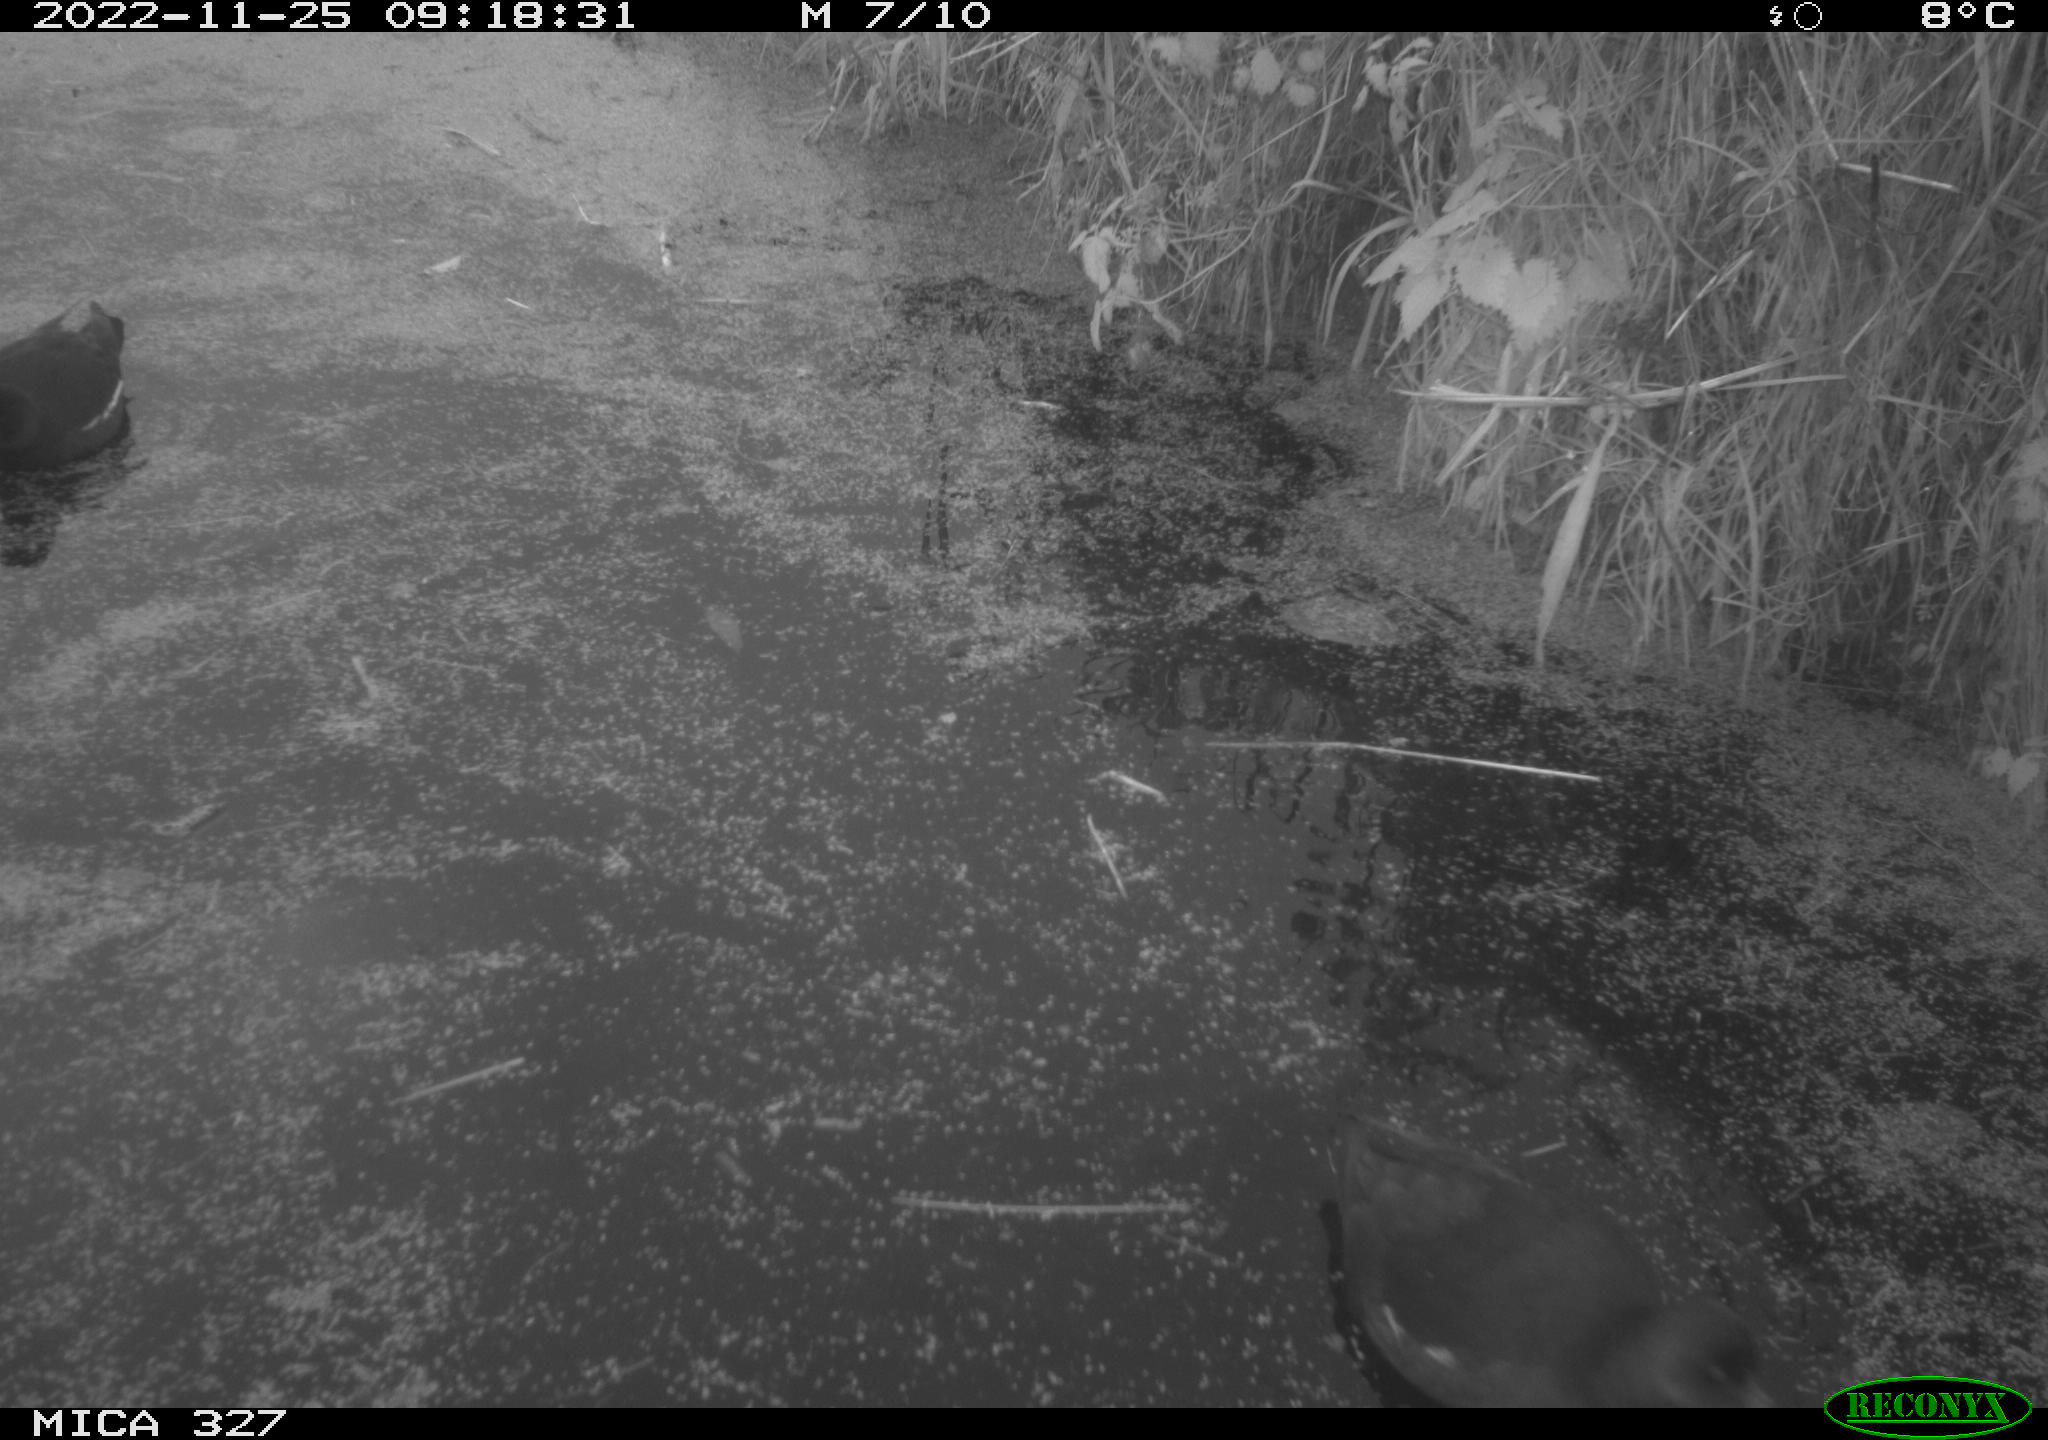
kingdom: Animalia
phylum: Chordata
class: Aves
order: Gruiformes
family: Rallidae
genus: Gallinula
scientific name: Gallinula chloropus
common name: Common moorhen
